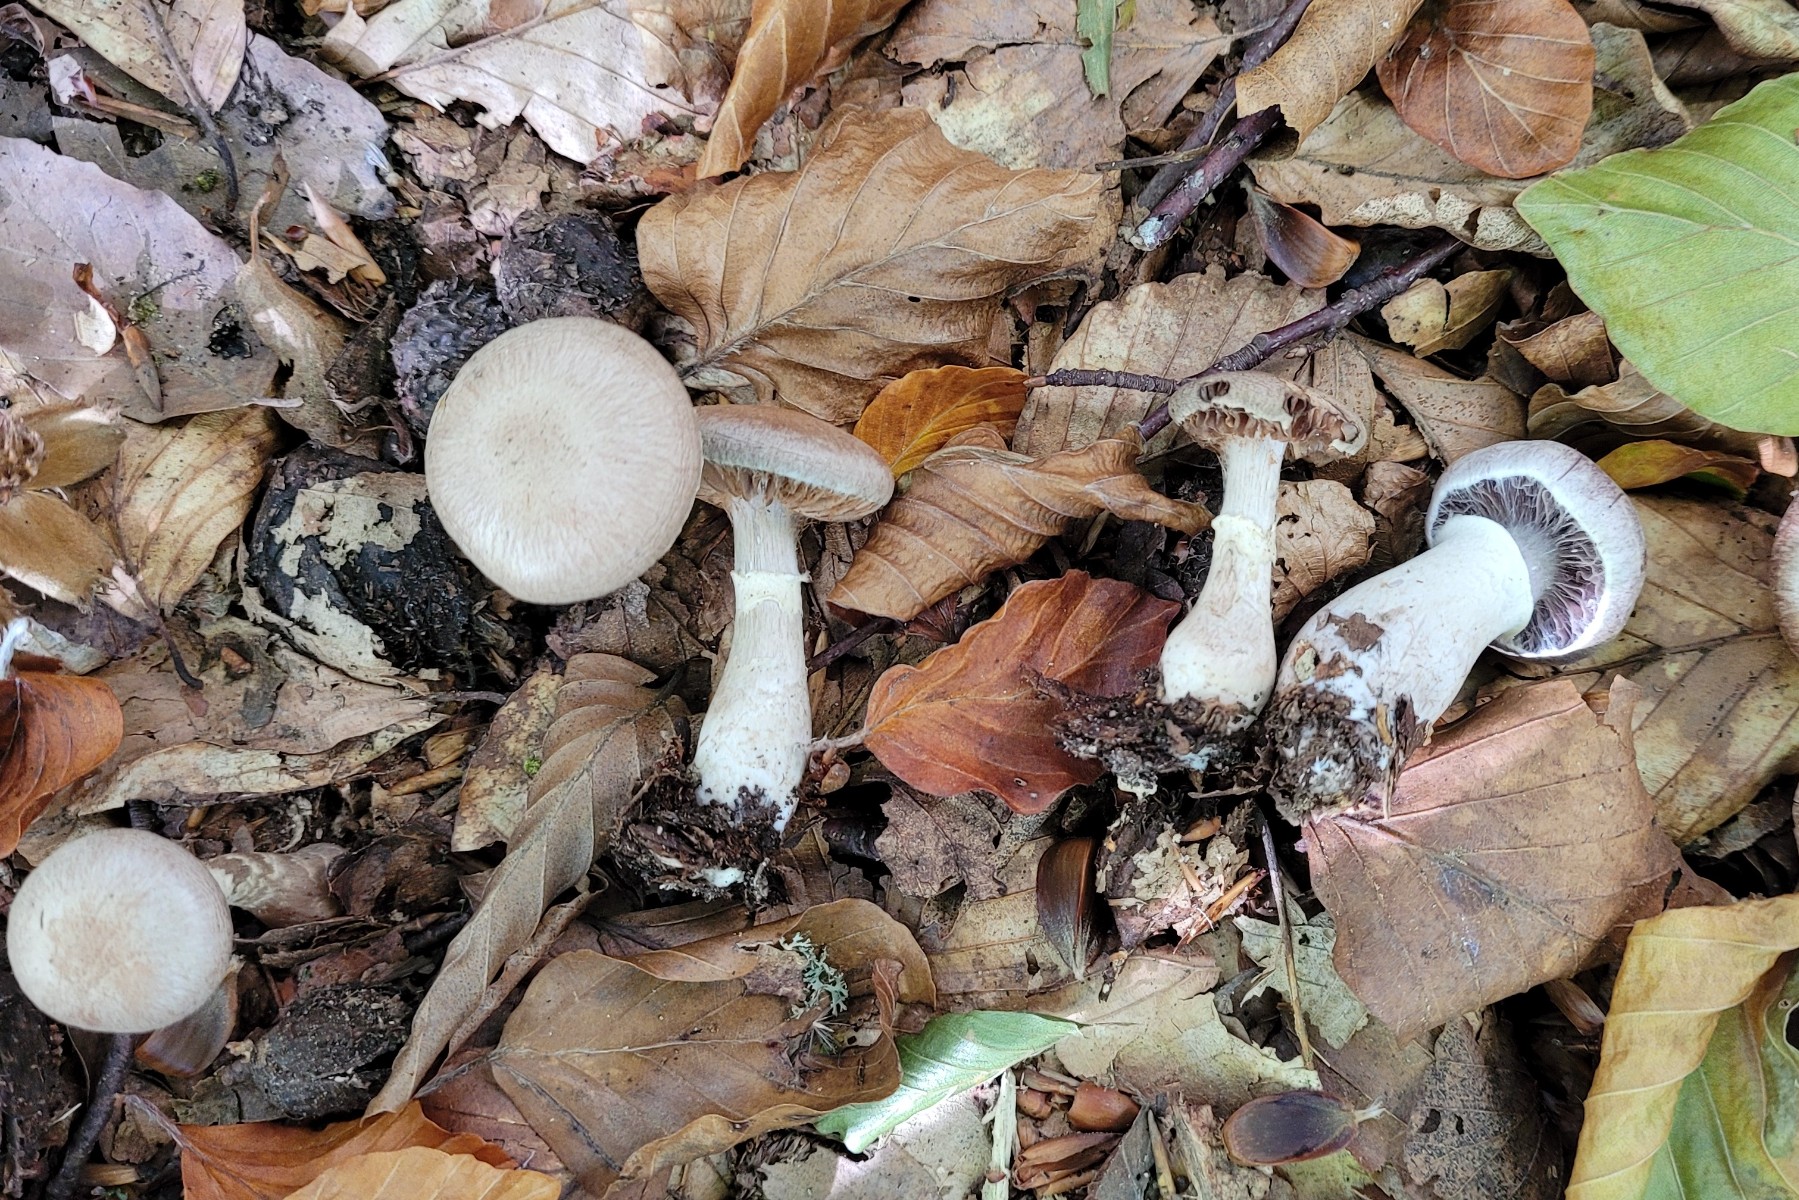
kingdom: Fungi
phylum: Basidiomycota
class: Agaricomycetes
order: Agaricales
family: Cortinariaceae
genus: Cortinarius
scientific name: Cortinarius torvus
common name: champignonagtig slørhat
